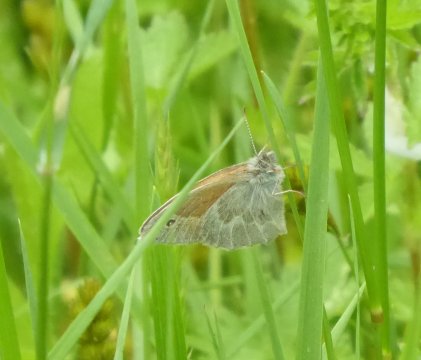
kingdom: Animalia
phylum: Arthropoda
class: Insecta
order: Lepidoptera
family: Nymphalidae
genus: Coenonympha
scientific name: Coenonympha tullia
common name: Large Heath
